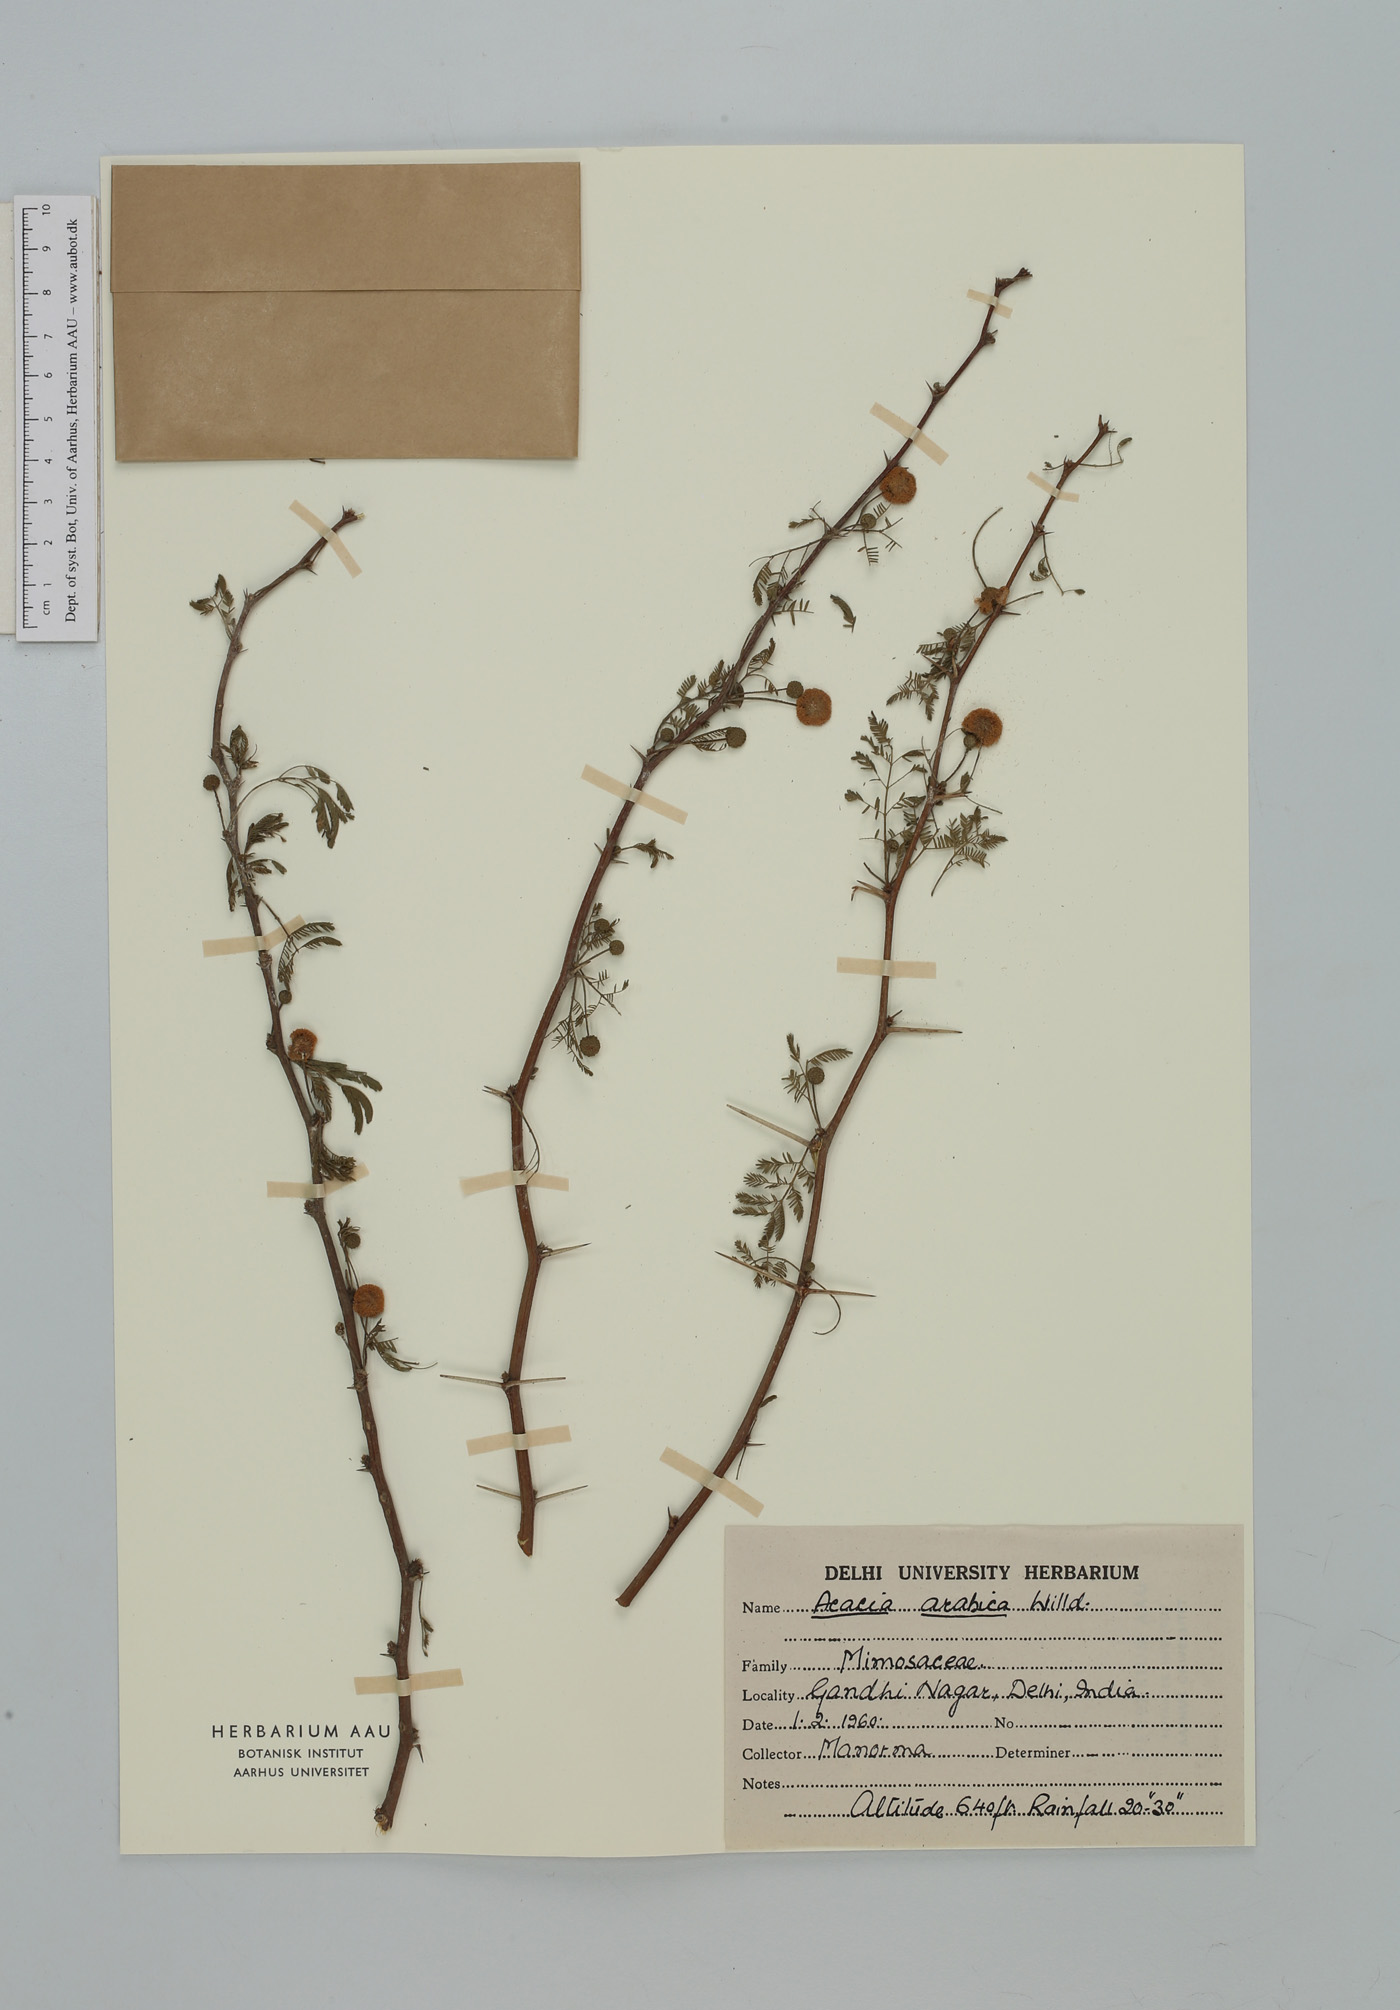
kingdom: Plantae
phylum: Tracheophyta
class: Magnoliopsida
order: Fabales
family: Fabaceae
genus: Vachellia
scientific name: Vachellia nilotica
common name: Arabic gumtree
